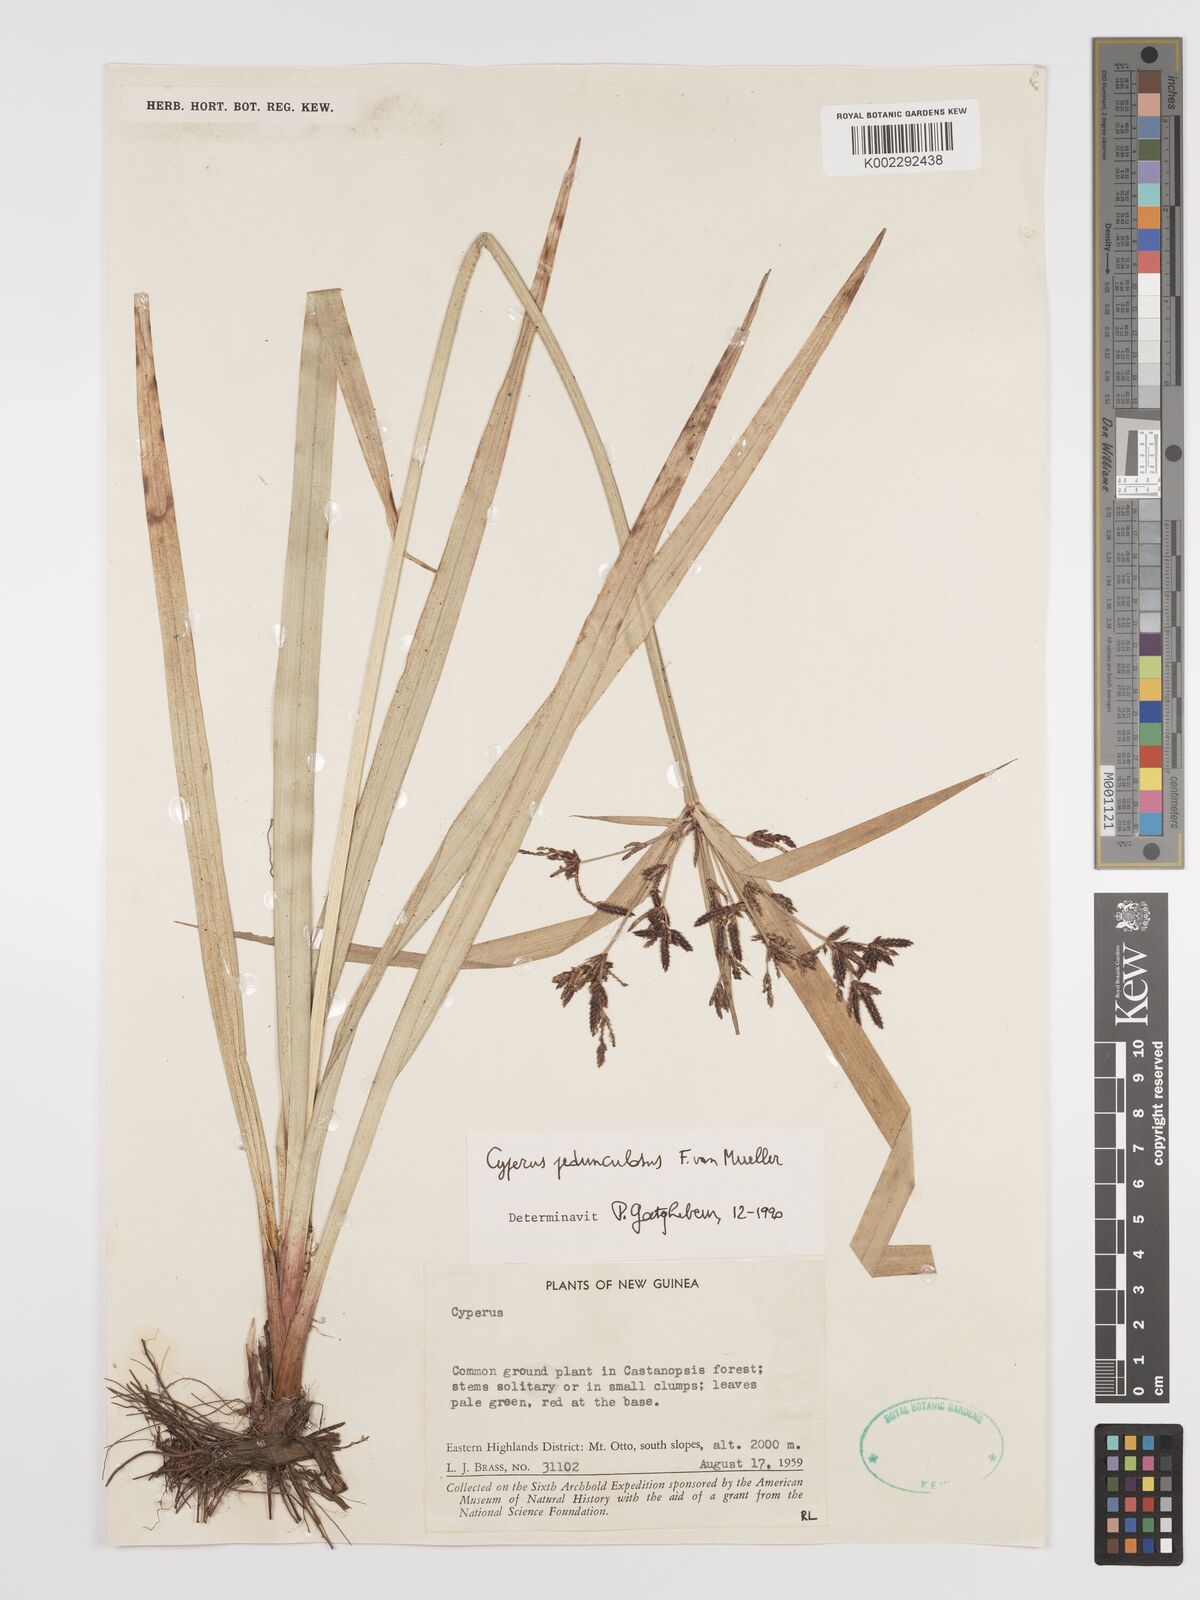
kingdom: Plantae
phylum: Tracheophyta
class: Liliopsida
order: Poales
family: Cyperaceae
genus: Cyperus
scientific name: Cyperus pedunculosus
